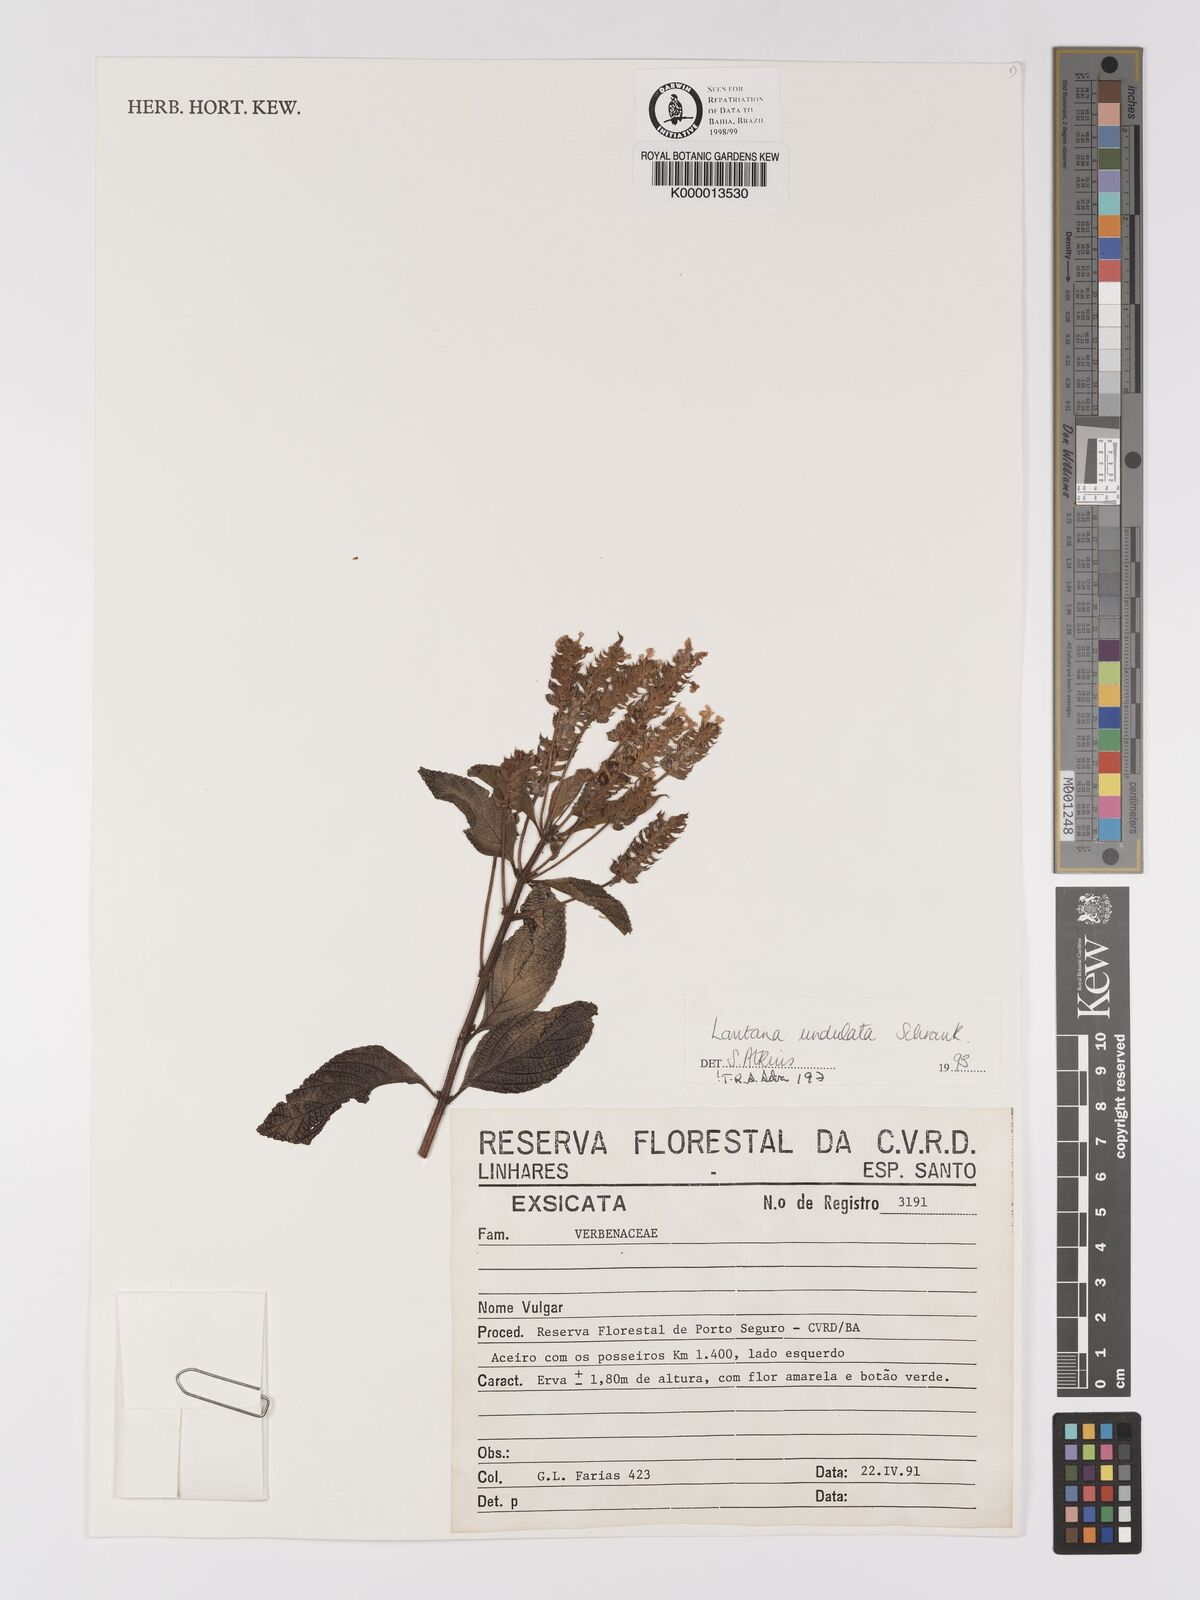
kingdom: Plantae
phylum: Tracheophyta
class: Magnoliopsida
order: Lamiales
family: Verbenaceae
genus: Lantana
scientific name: Lantana undulata
